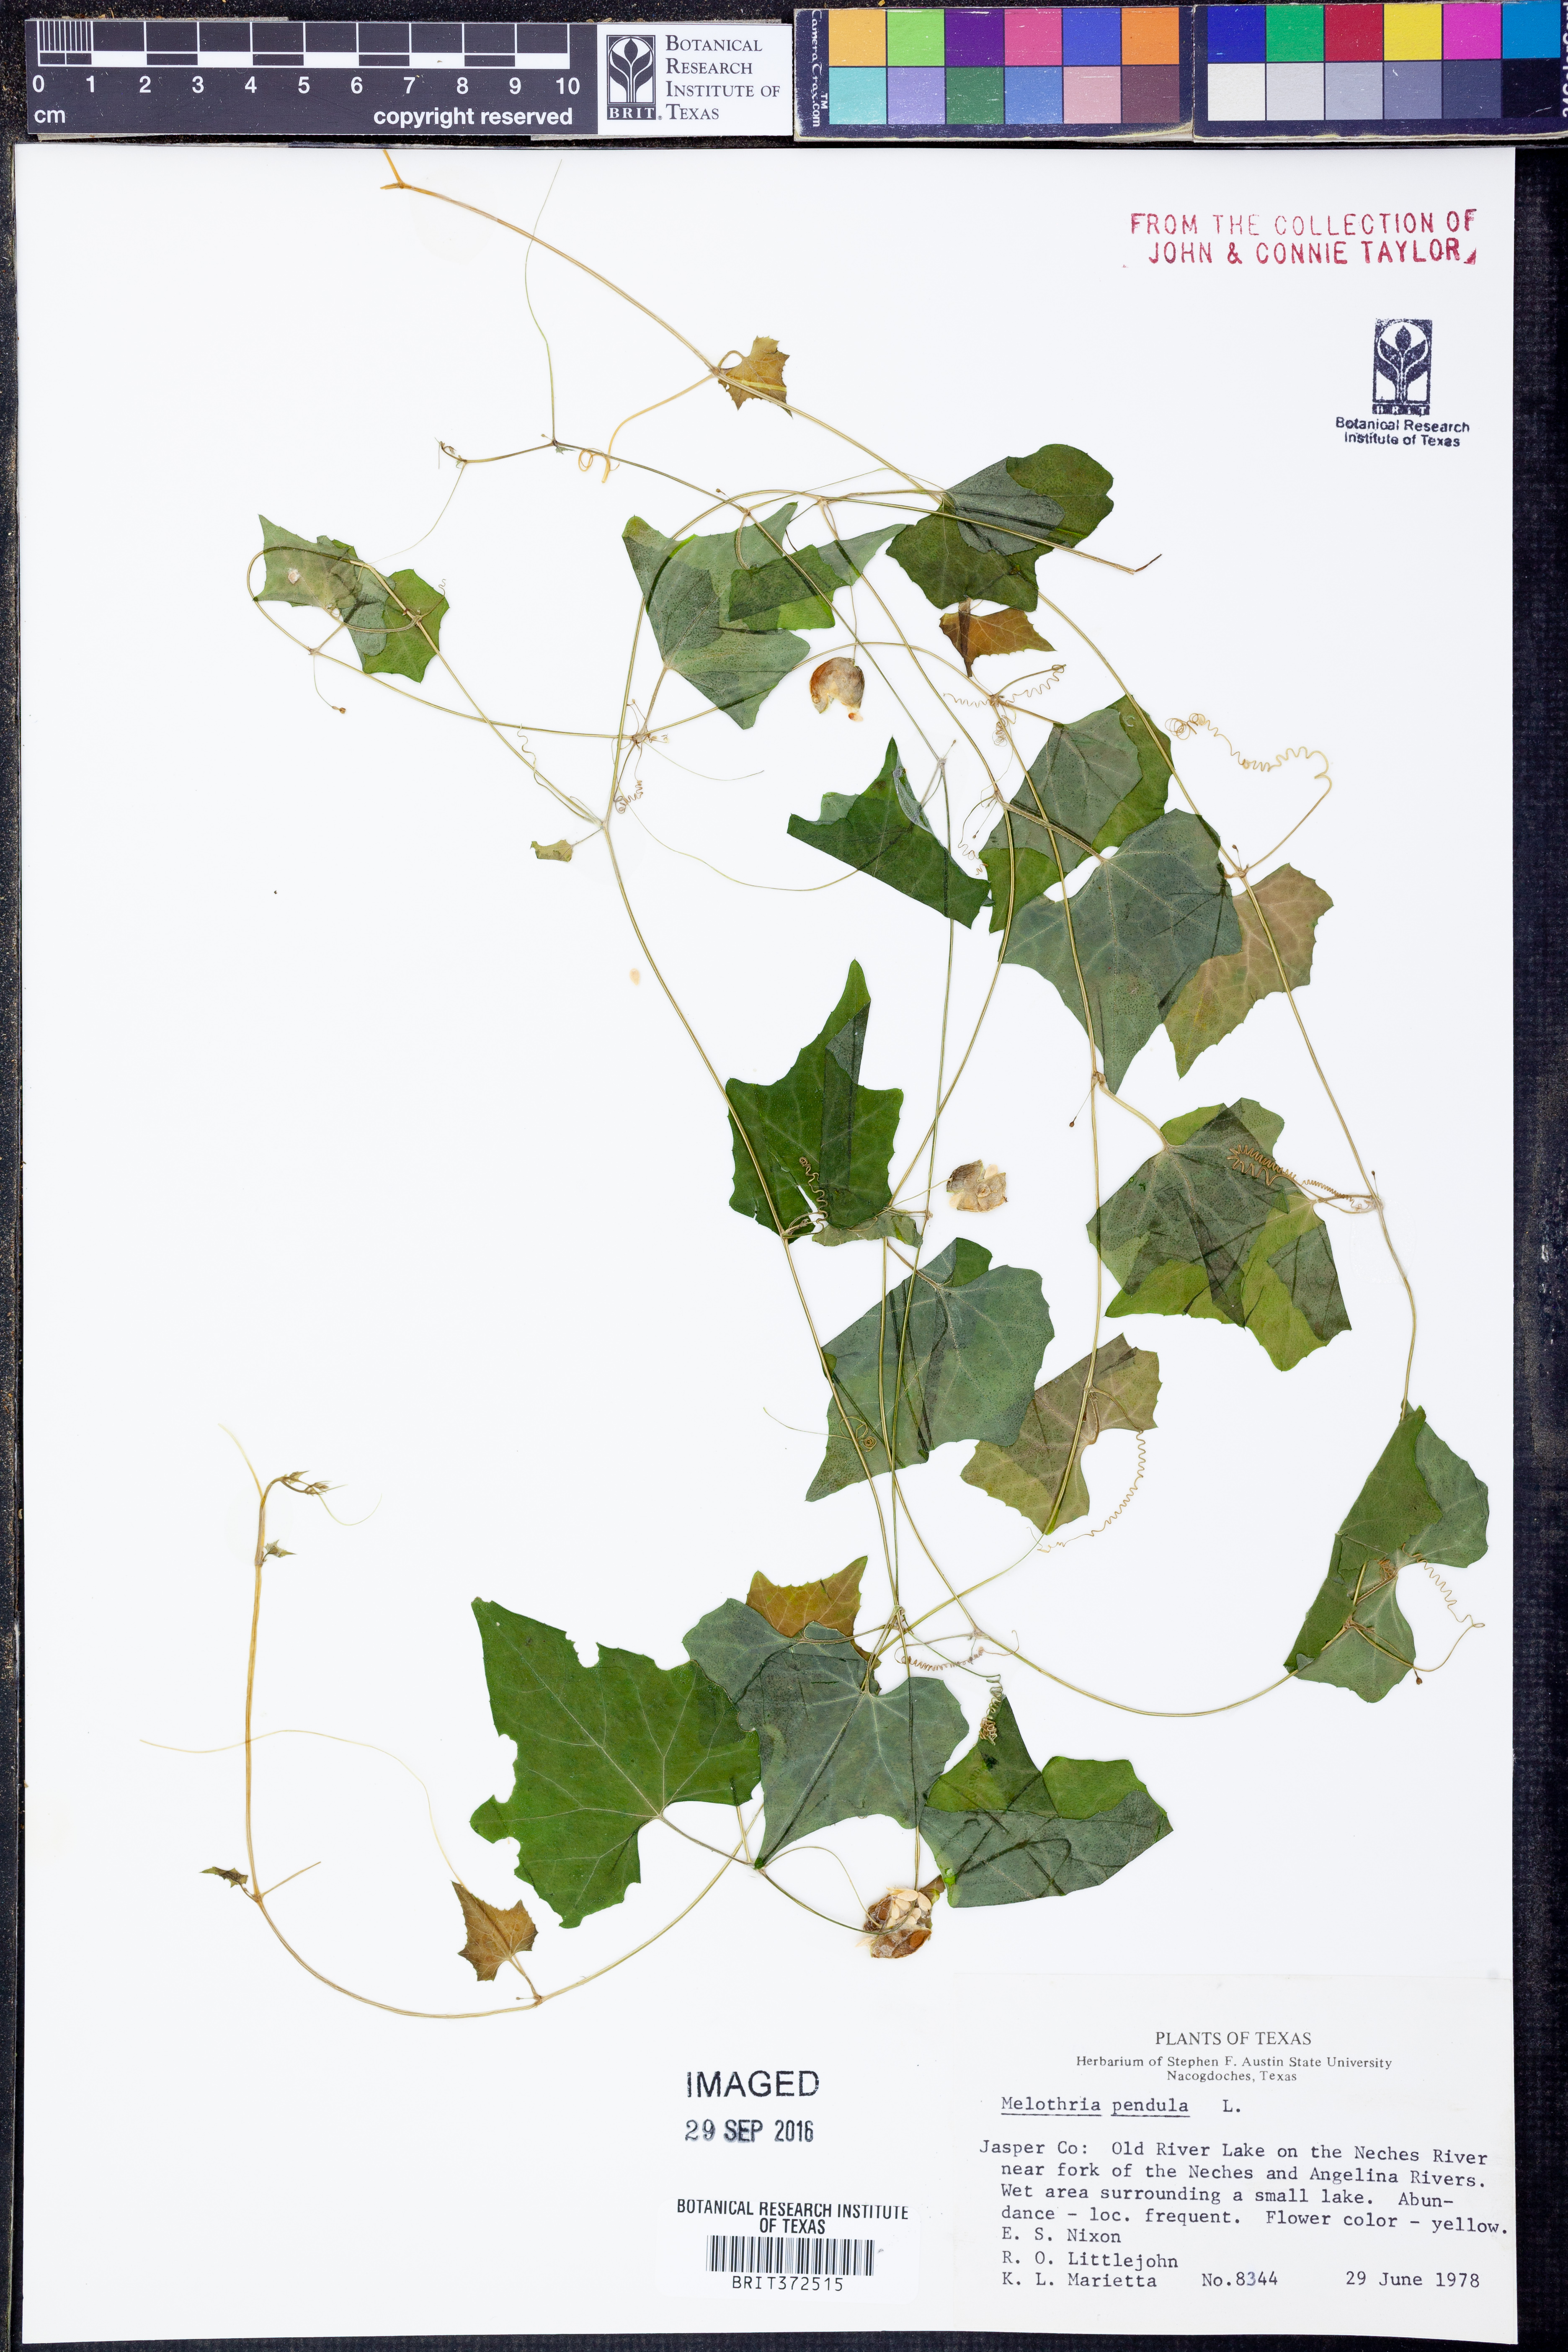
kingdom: Plantae
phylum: Tracheophyta
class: Magnoliopsida
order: Cucurbitales
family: Cucurbitaceae
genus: Melothria
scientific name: Melothria pendula
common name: Creeping-cucumber
